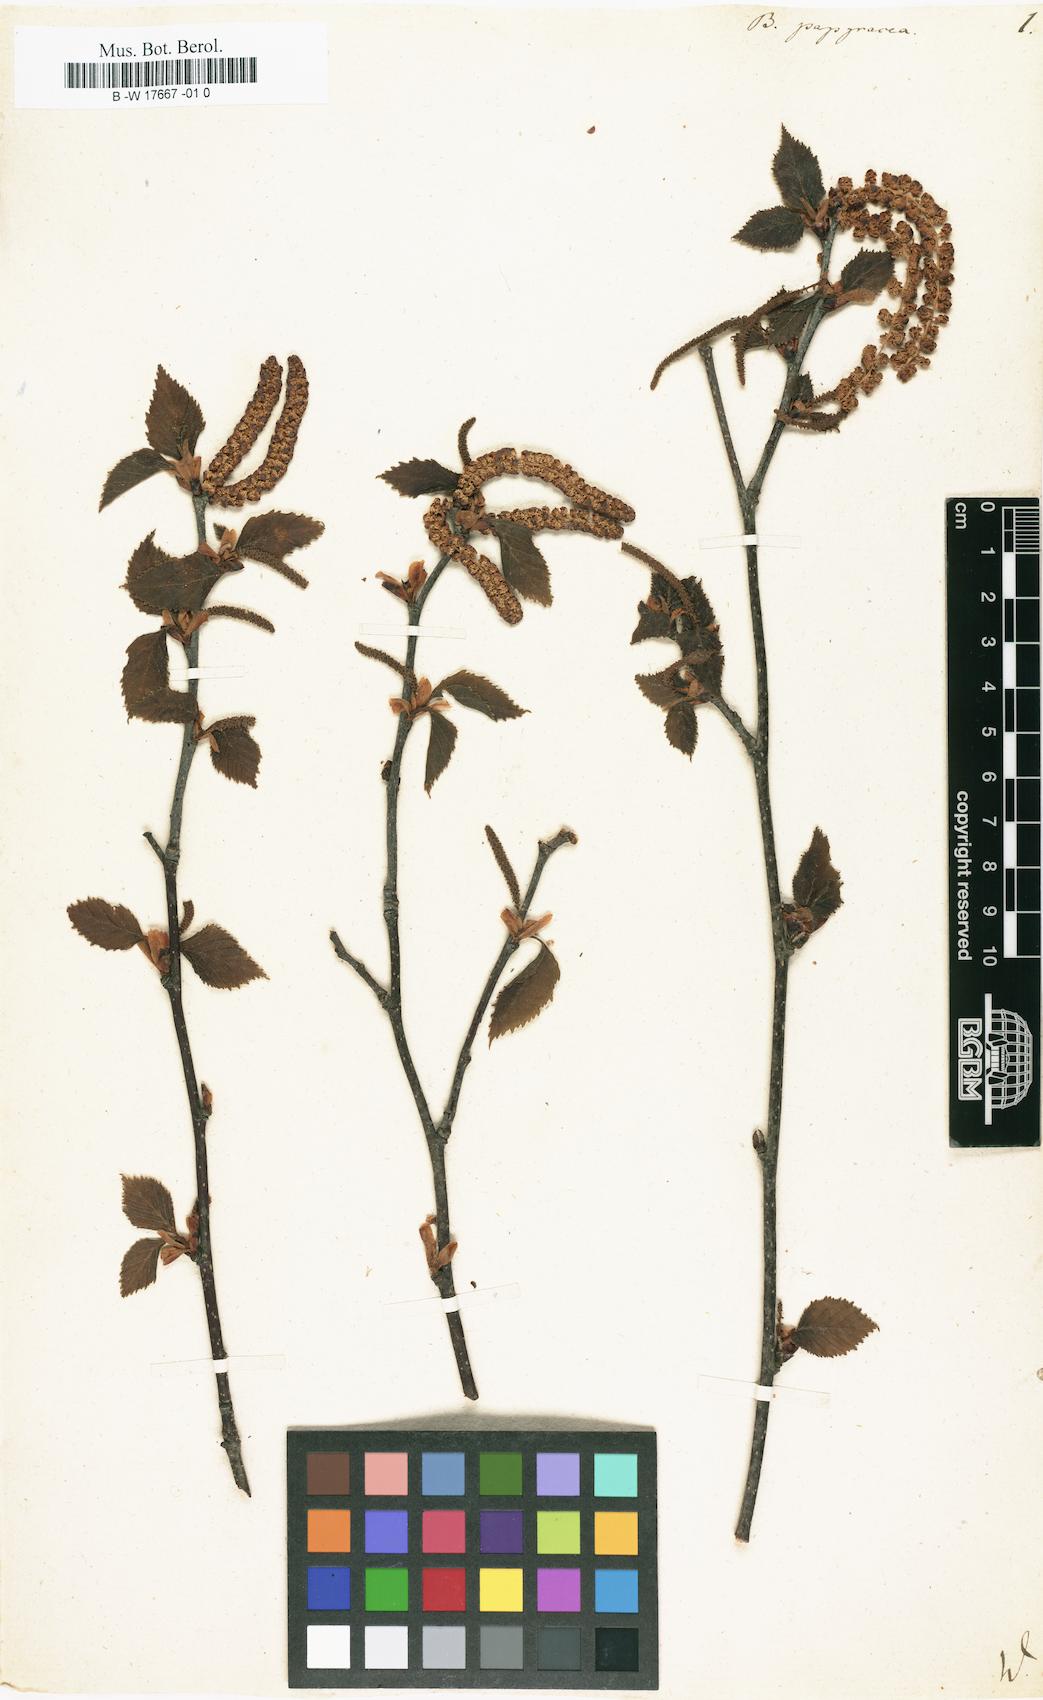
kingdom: Plantae
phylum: Tracheophyta
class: Magnoliopsida
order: Fagales
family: Betulaceae
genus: Betula
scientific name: Betula papyrifera
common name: Paper birch
